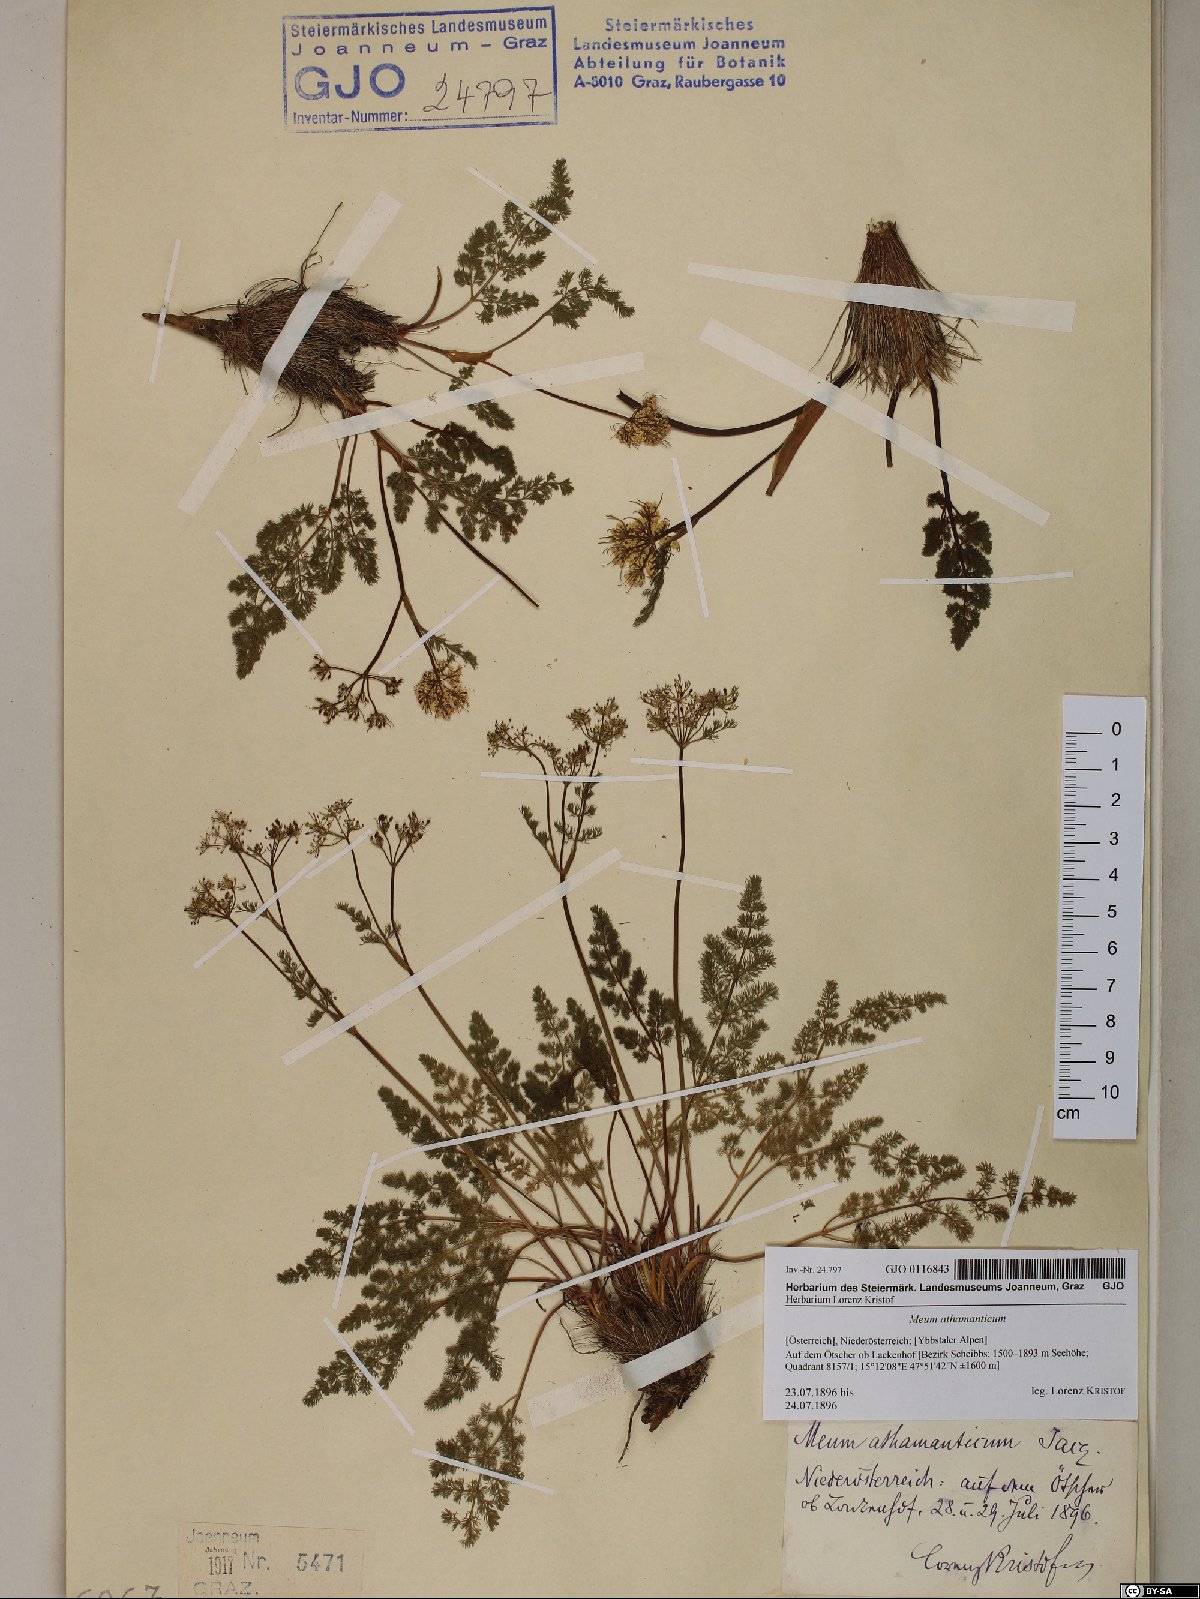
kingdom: Plantae
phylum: Tracheophyta
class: Magnoliopsida
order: Apiales
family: Apiaceae
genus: Meum
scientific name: Meum athamanticum
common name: Spignel
